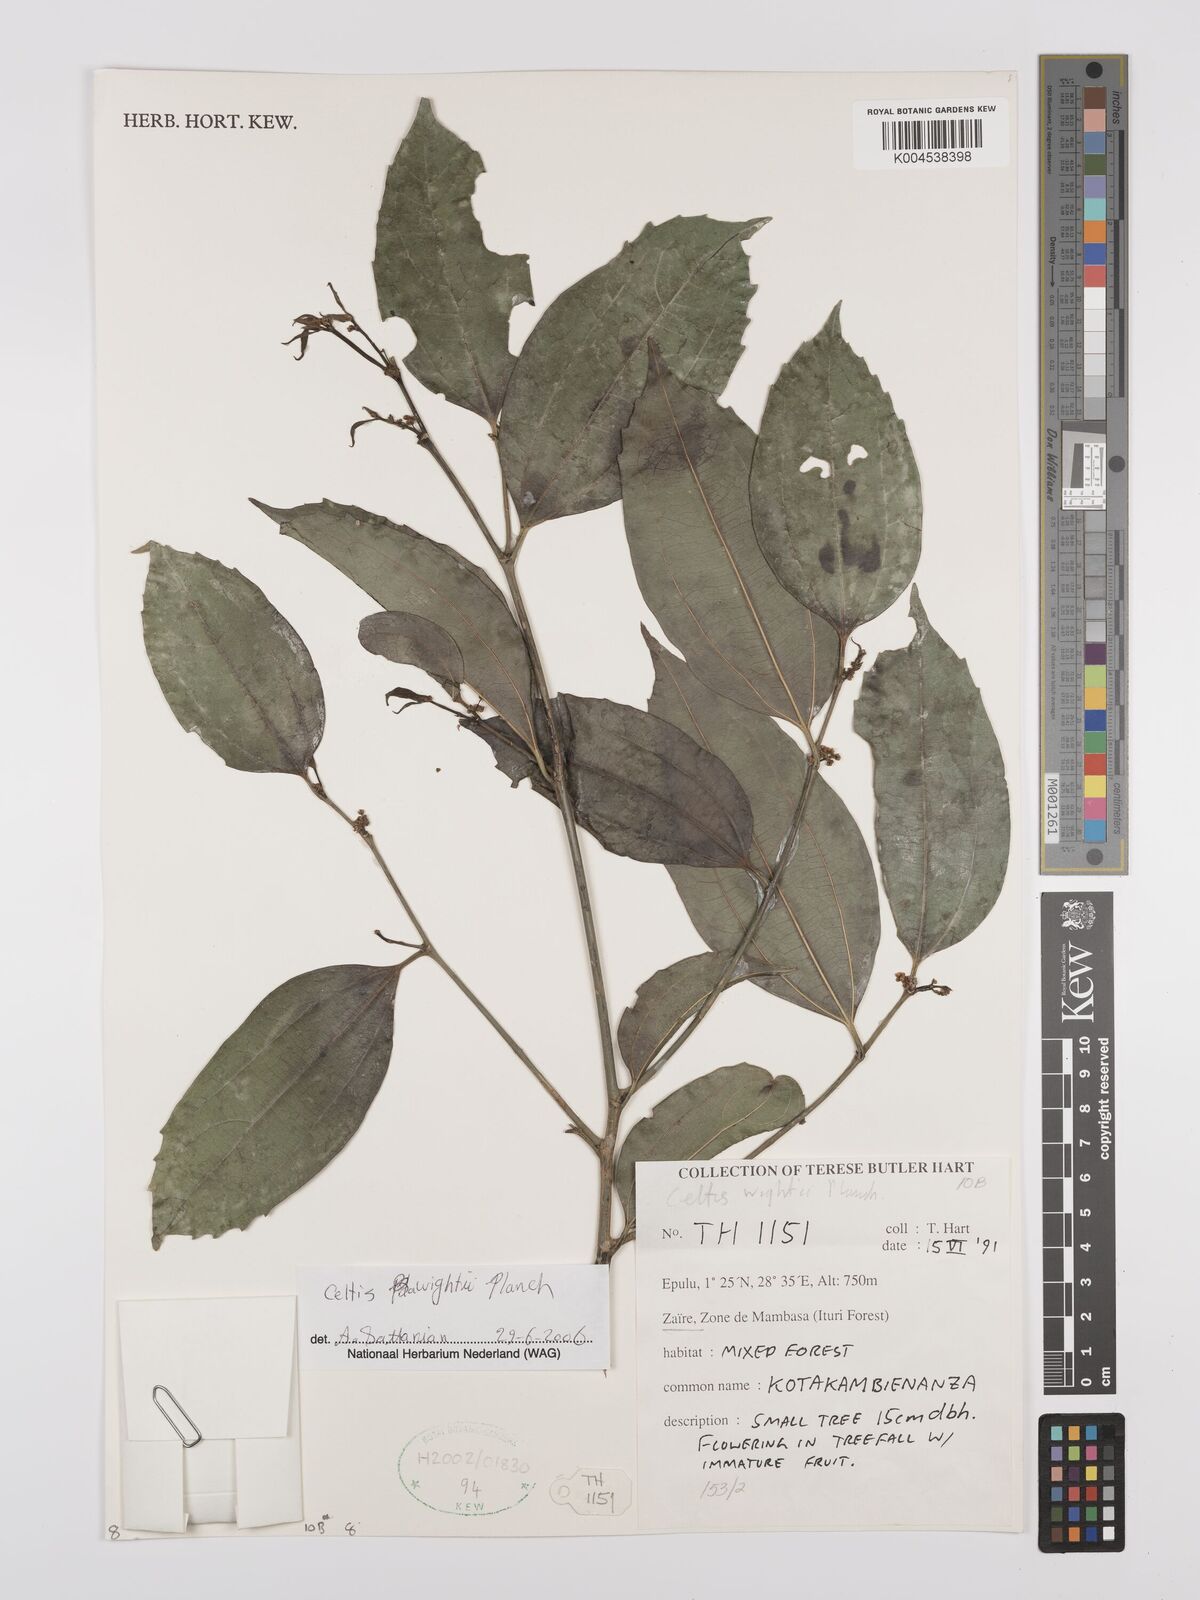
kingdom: Plantae
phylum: Tracheophyta
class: Magnoliopsida
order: Rosales
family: Cannabaceae
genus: Celtis
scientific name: Celtis philippensis
